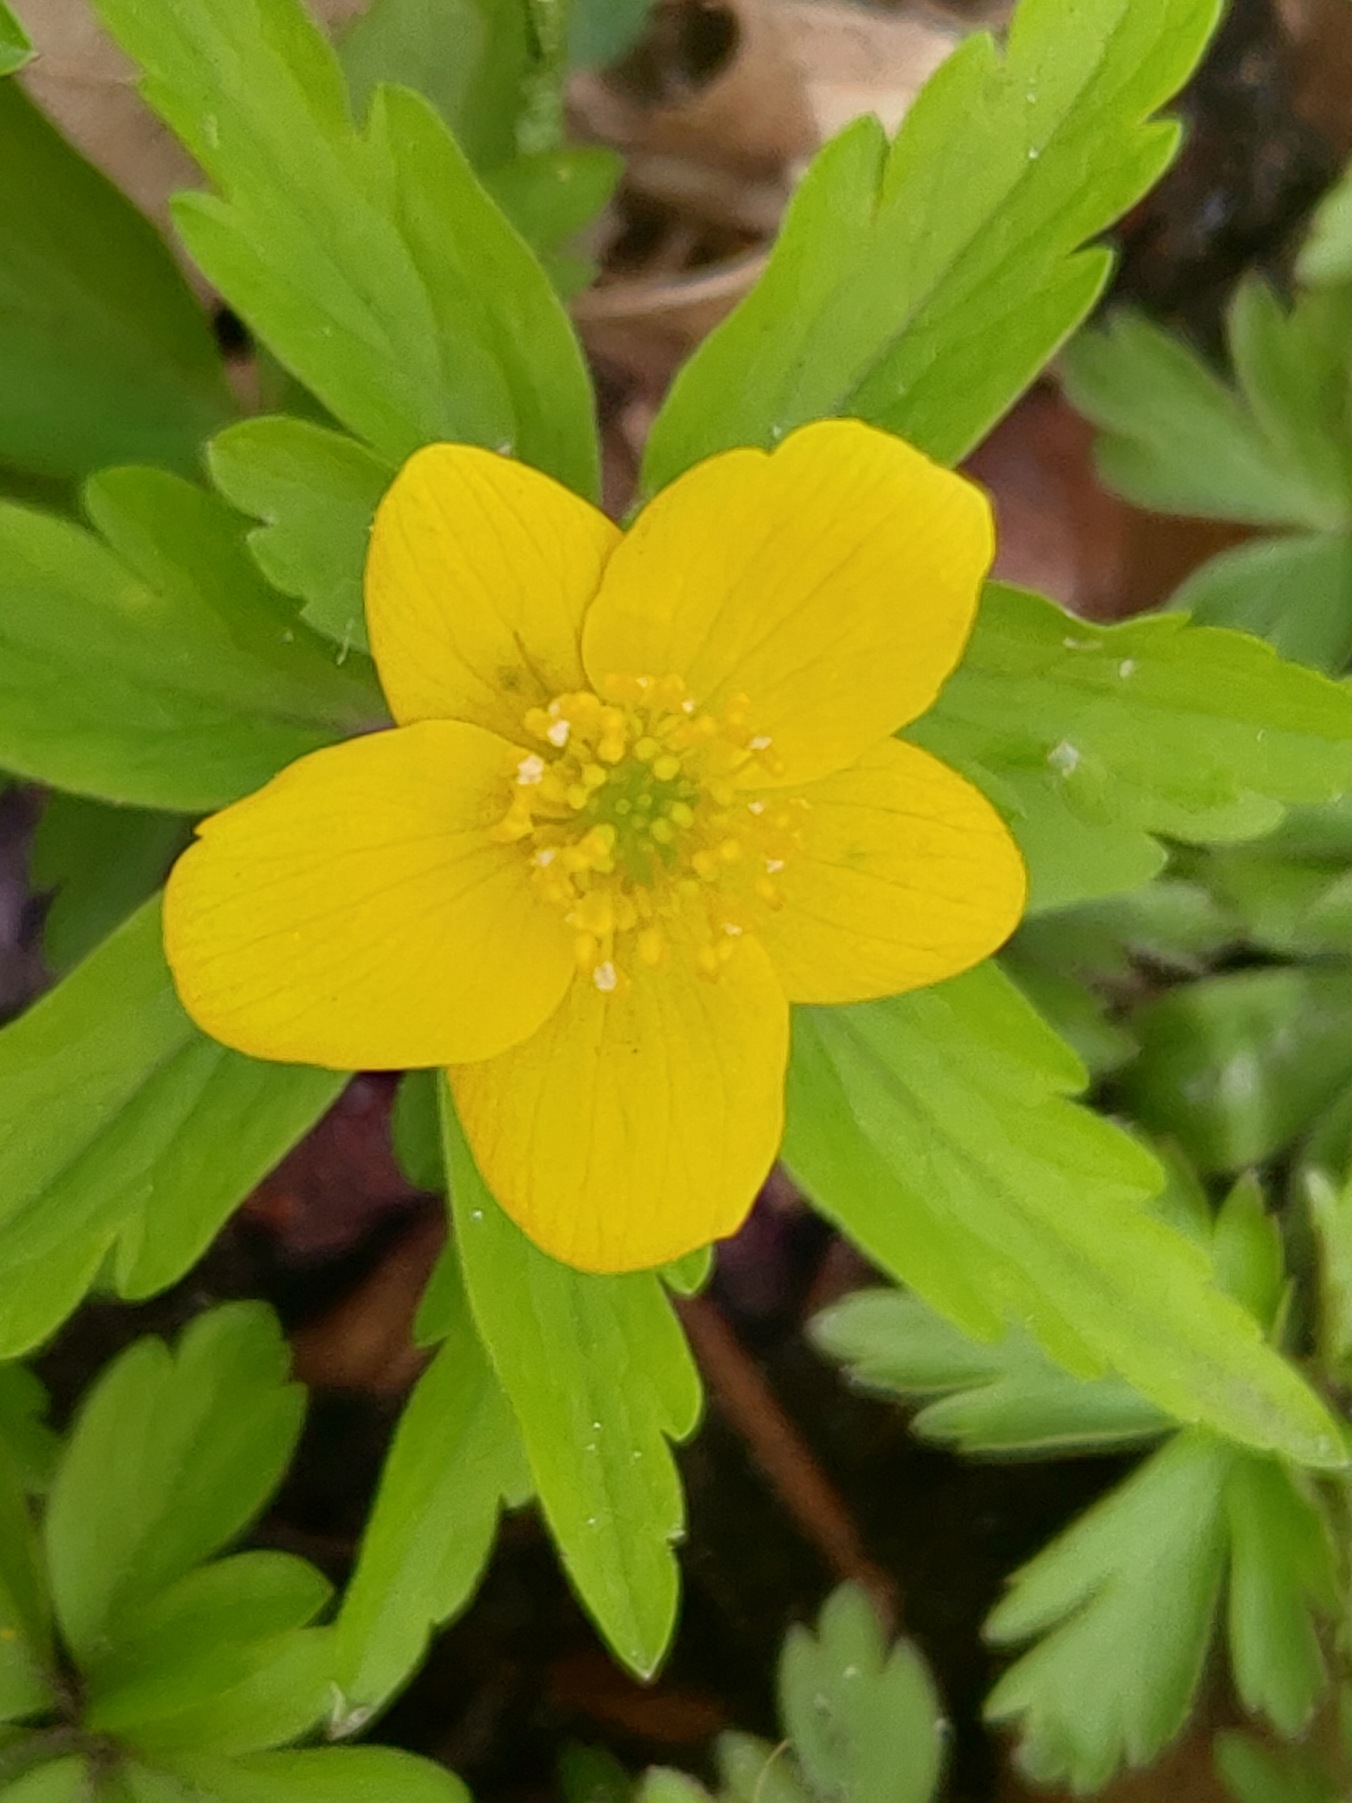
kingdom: Plantae
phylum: Tracheophyta
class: Magnoliopsida
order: Ranunculales
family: Ranunculaceae
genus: Anemone
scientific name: Anemone ranunculoides
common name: Gul anemone
